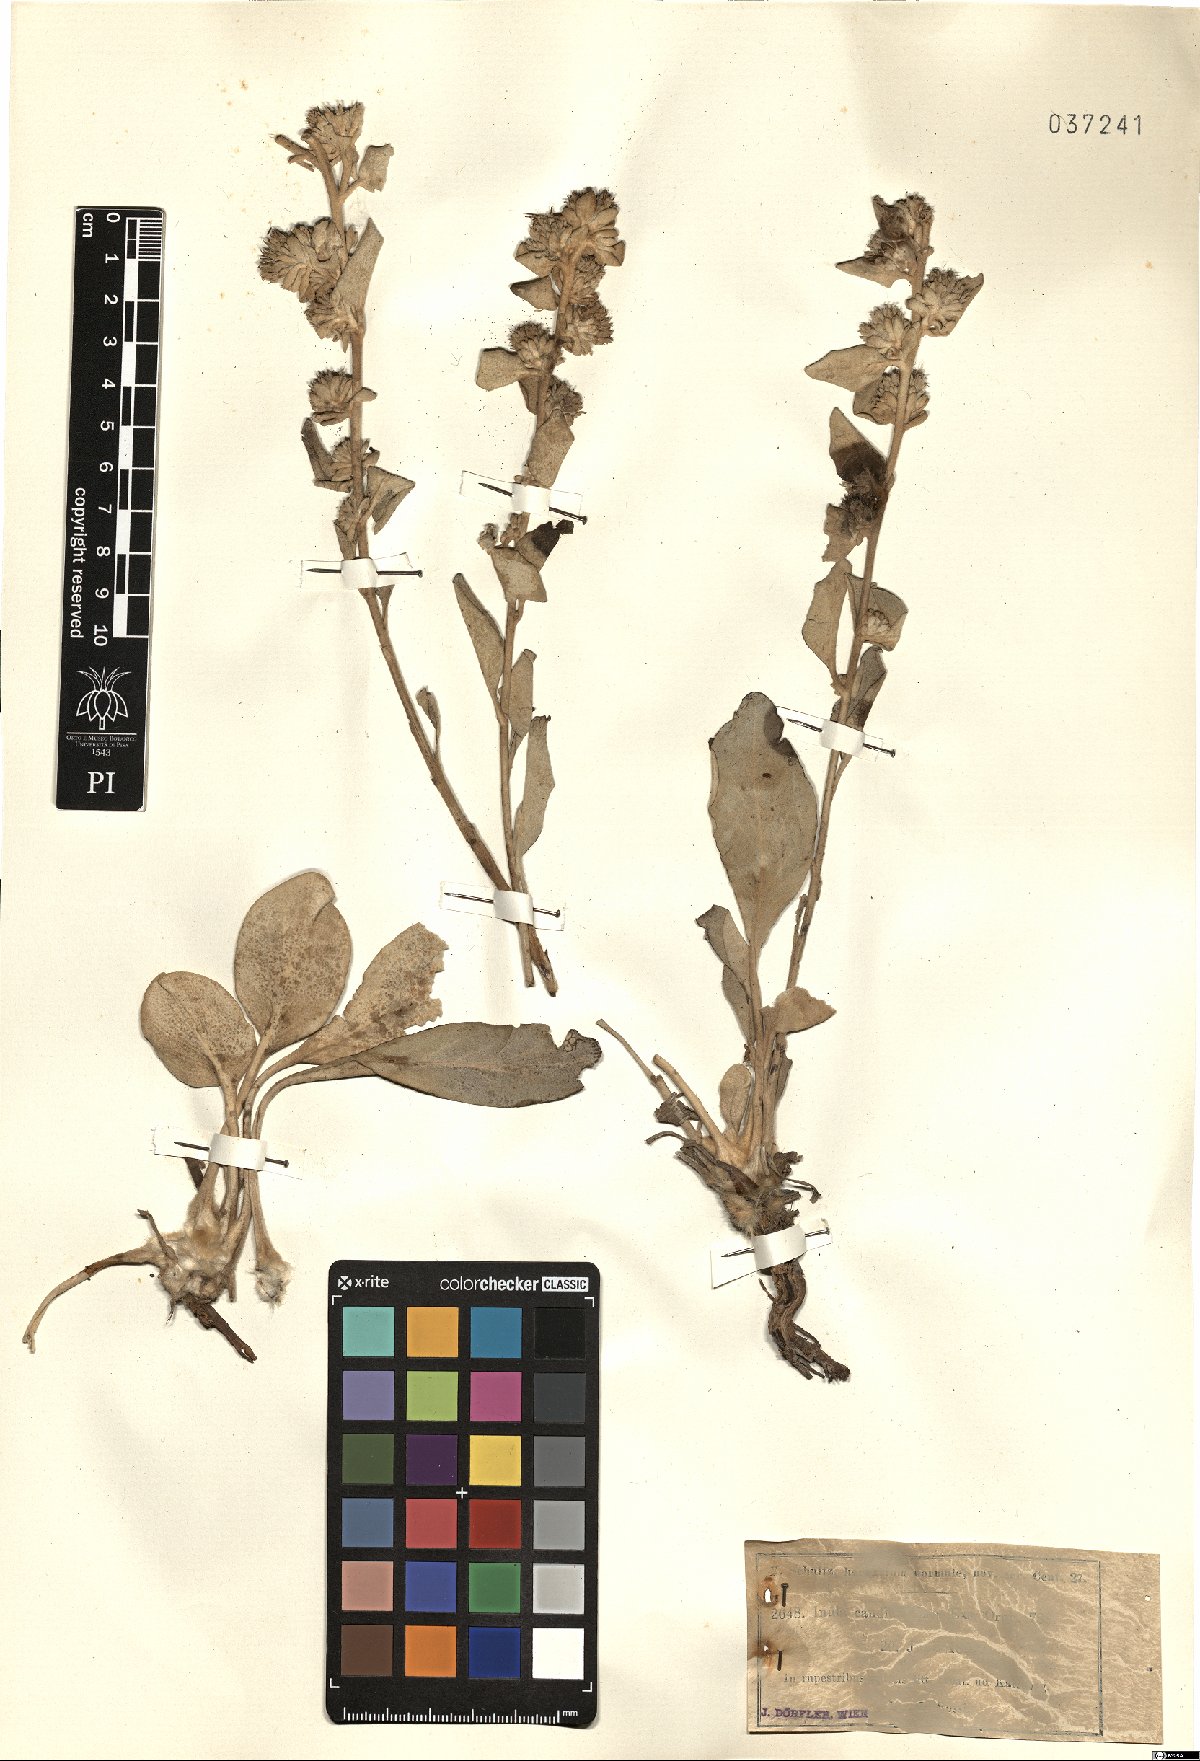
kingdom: Plantae
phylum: Tracheophyta
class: Magnoliopsida
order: Asterales
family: Asteraceae
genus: Inula
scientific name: Inula candida
